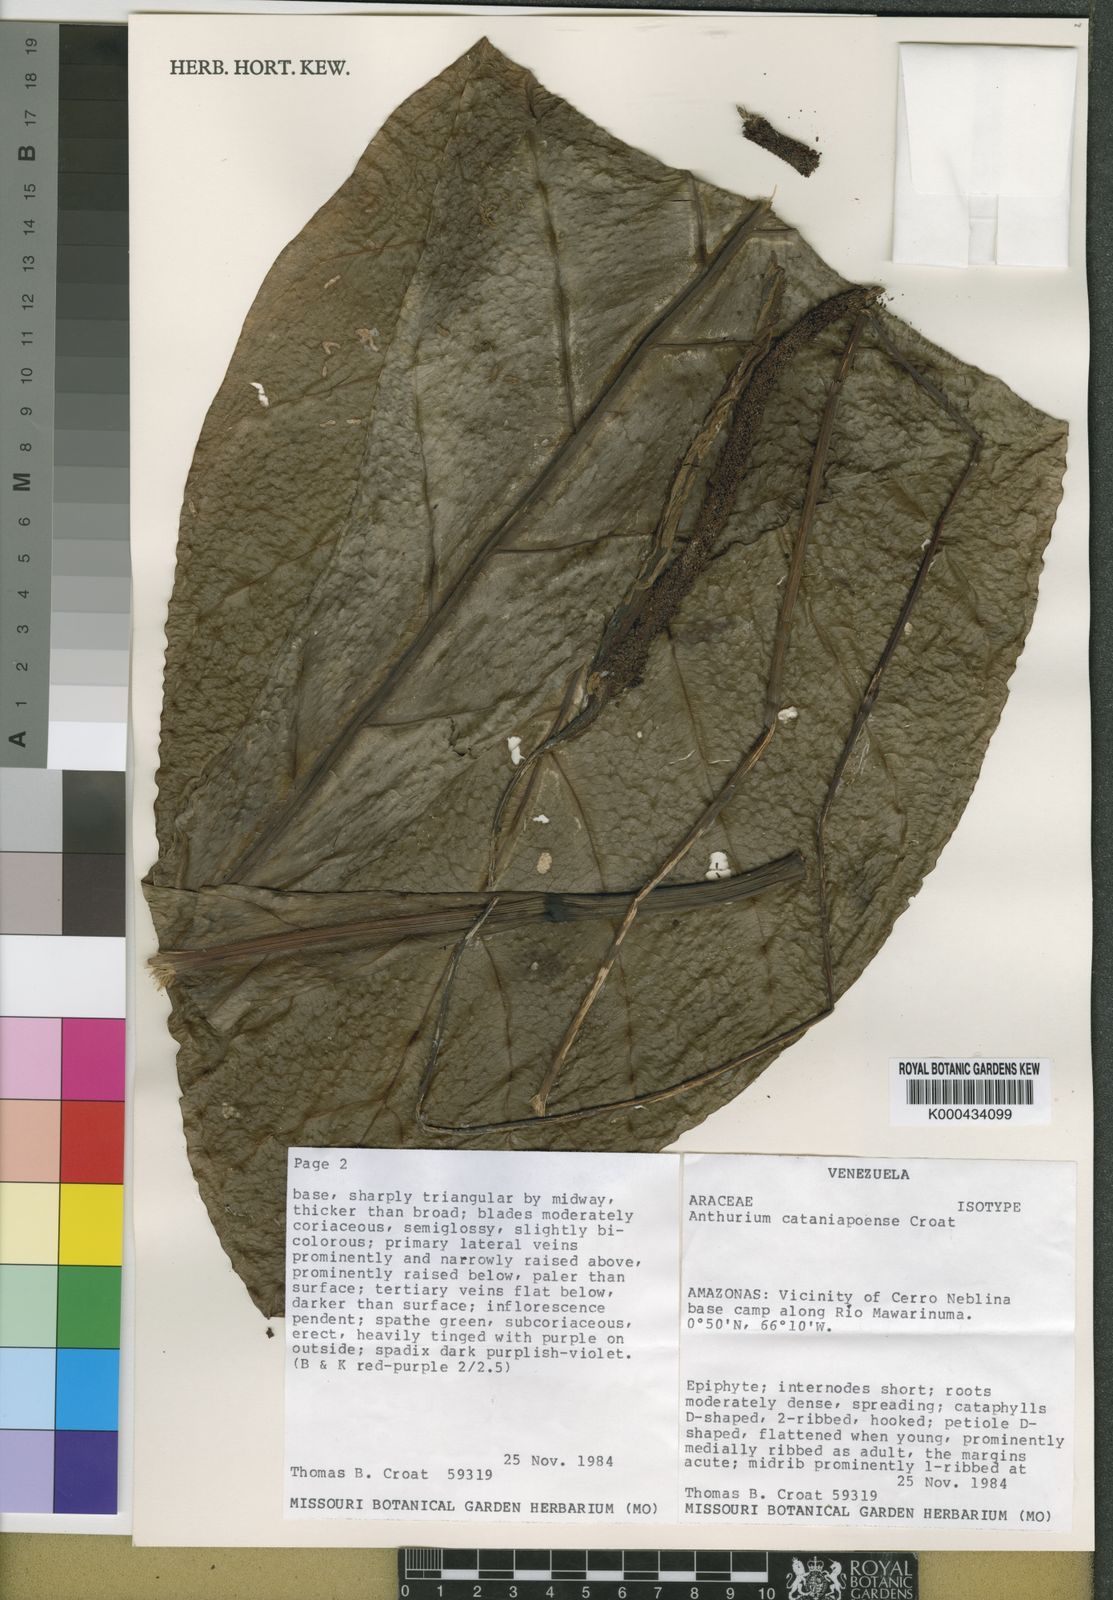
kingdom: Plantae
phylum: Tracheophyta
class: Liliopsida
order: Alismatales
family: Araceae
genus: Anthurium
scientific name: Anthurium circinatum
